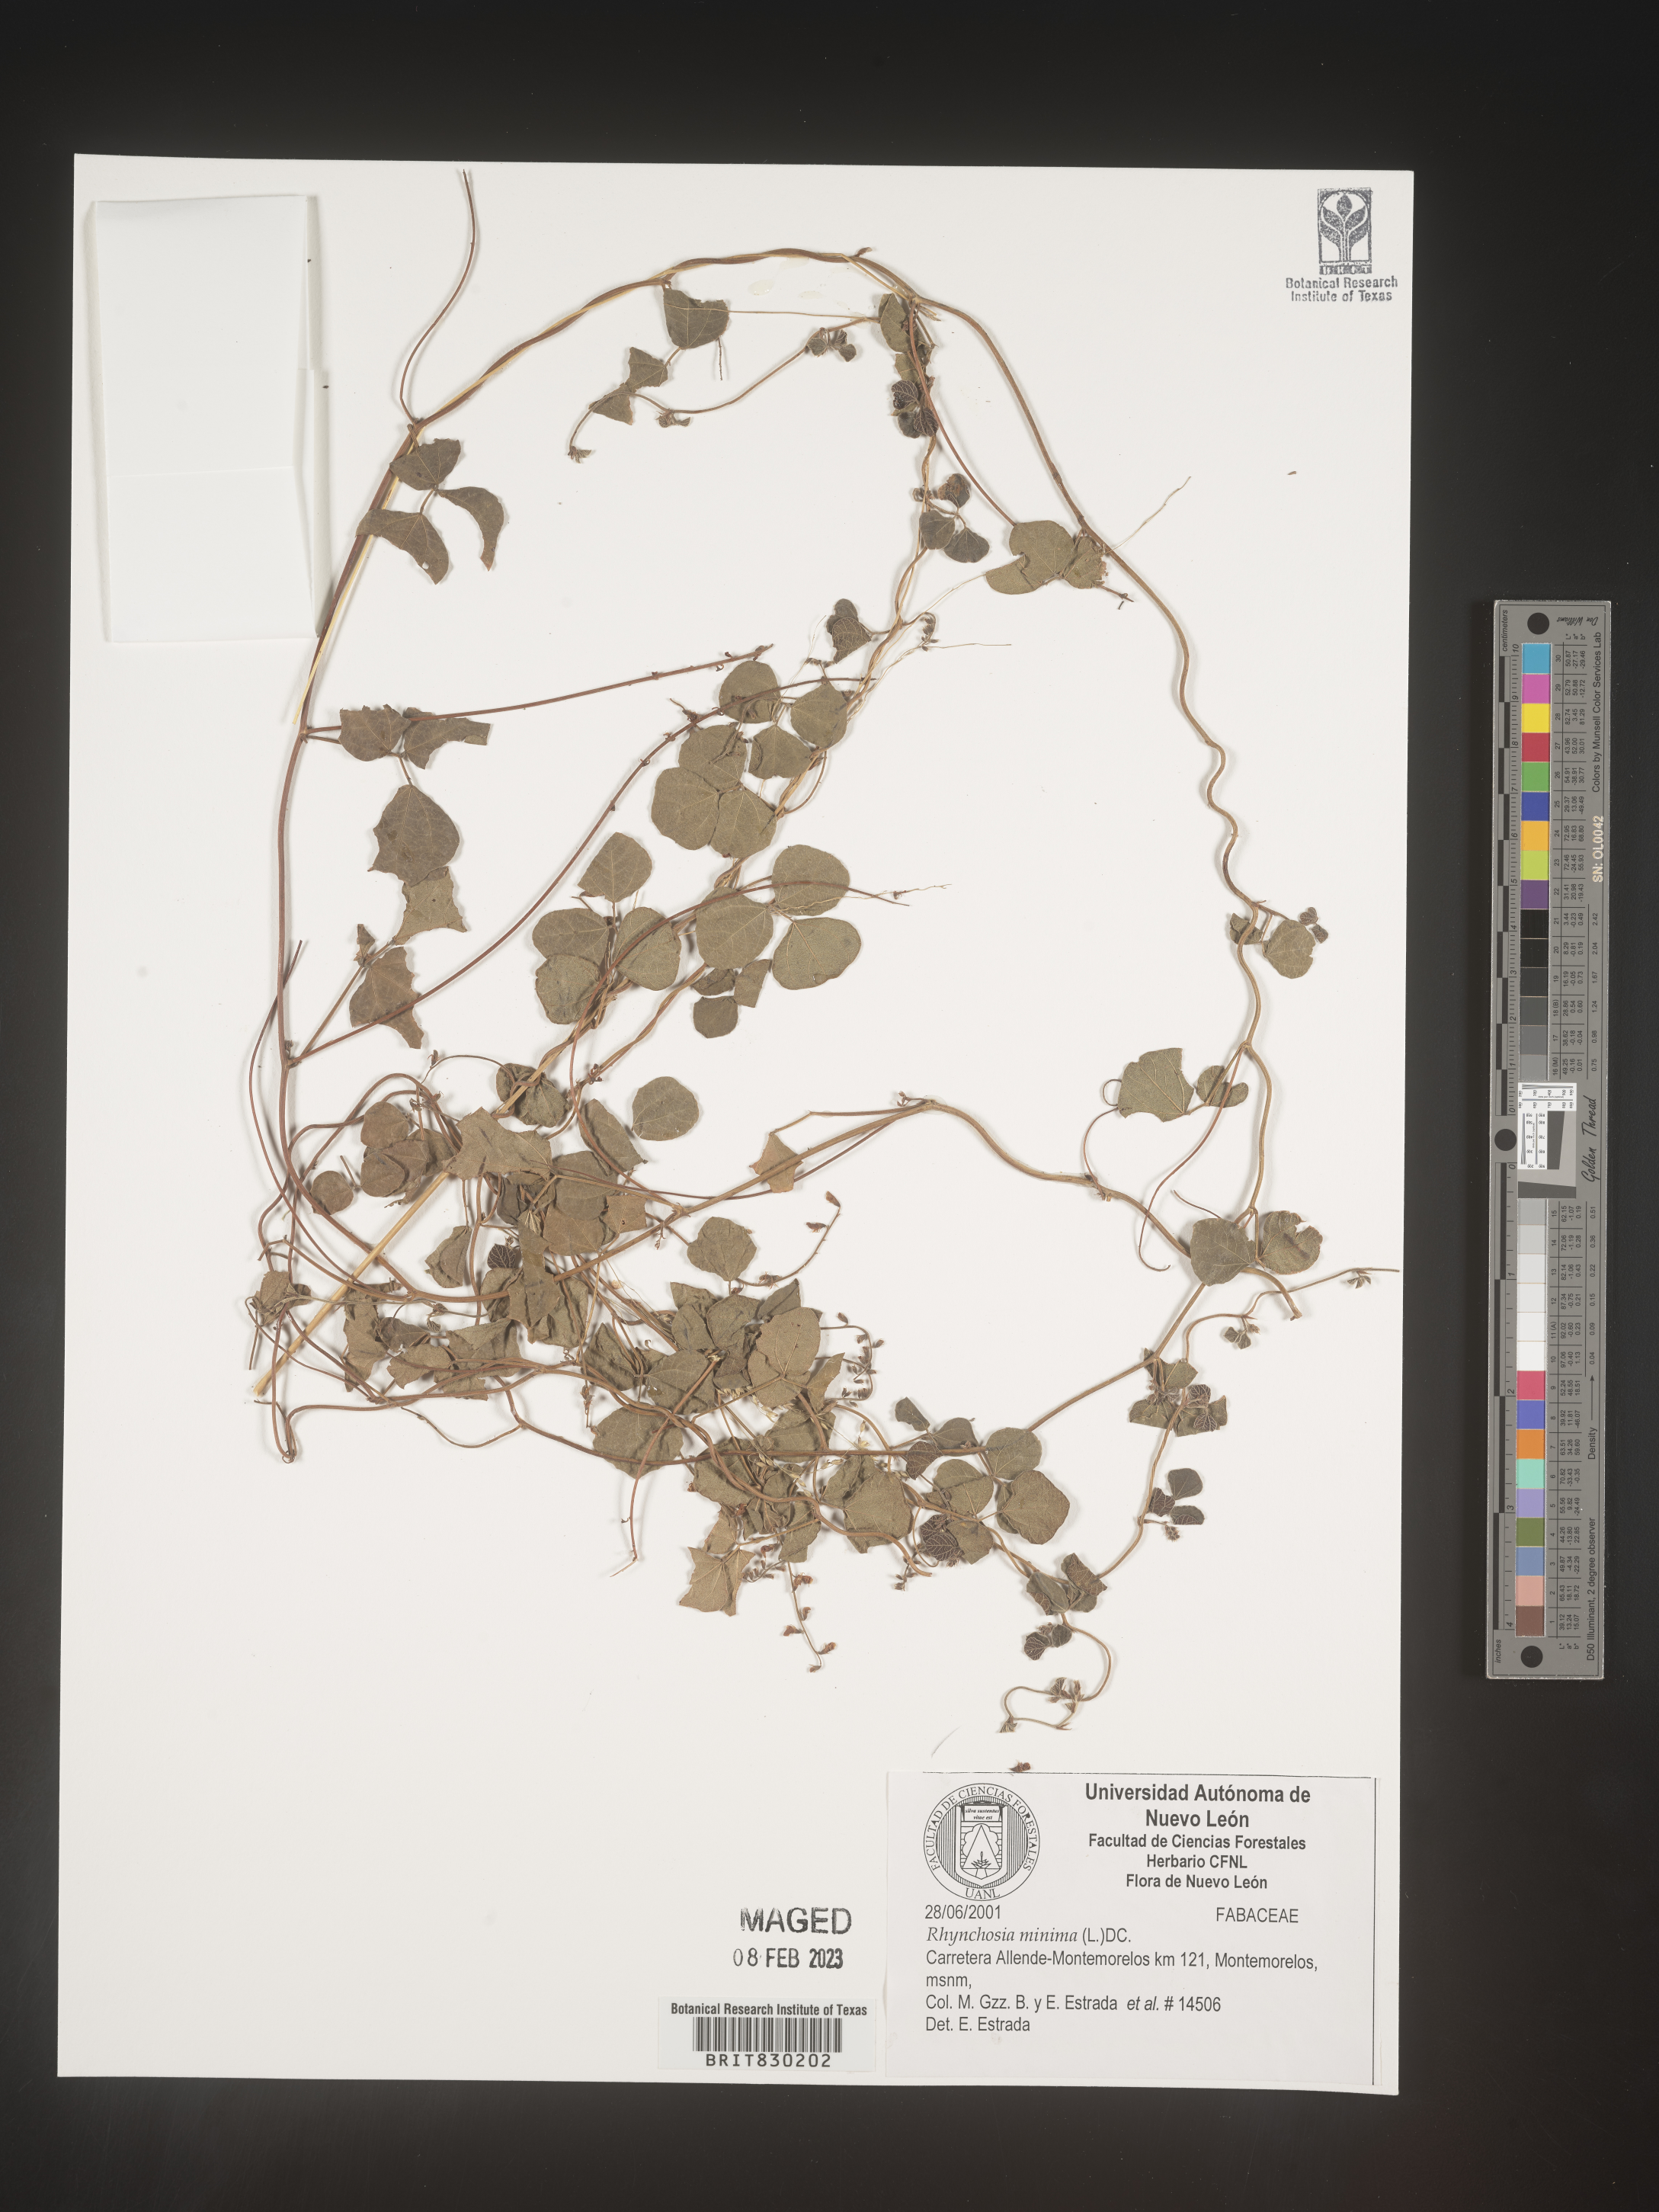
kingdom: Plantae
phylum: Tracheophyta
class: Magnoliopsida
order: Fabales
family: Fabaceae
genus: Rhynchosia
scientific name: Rhynchosia
